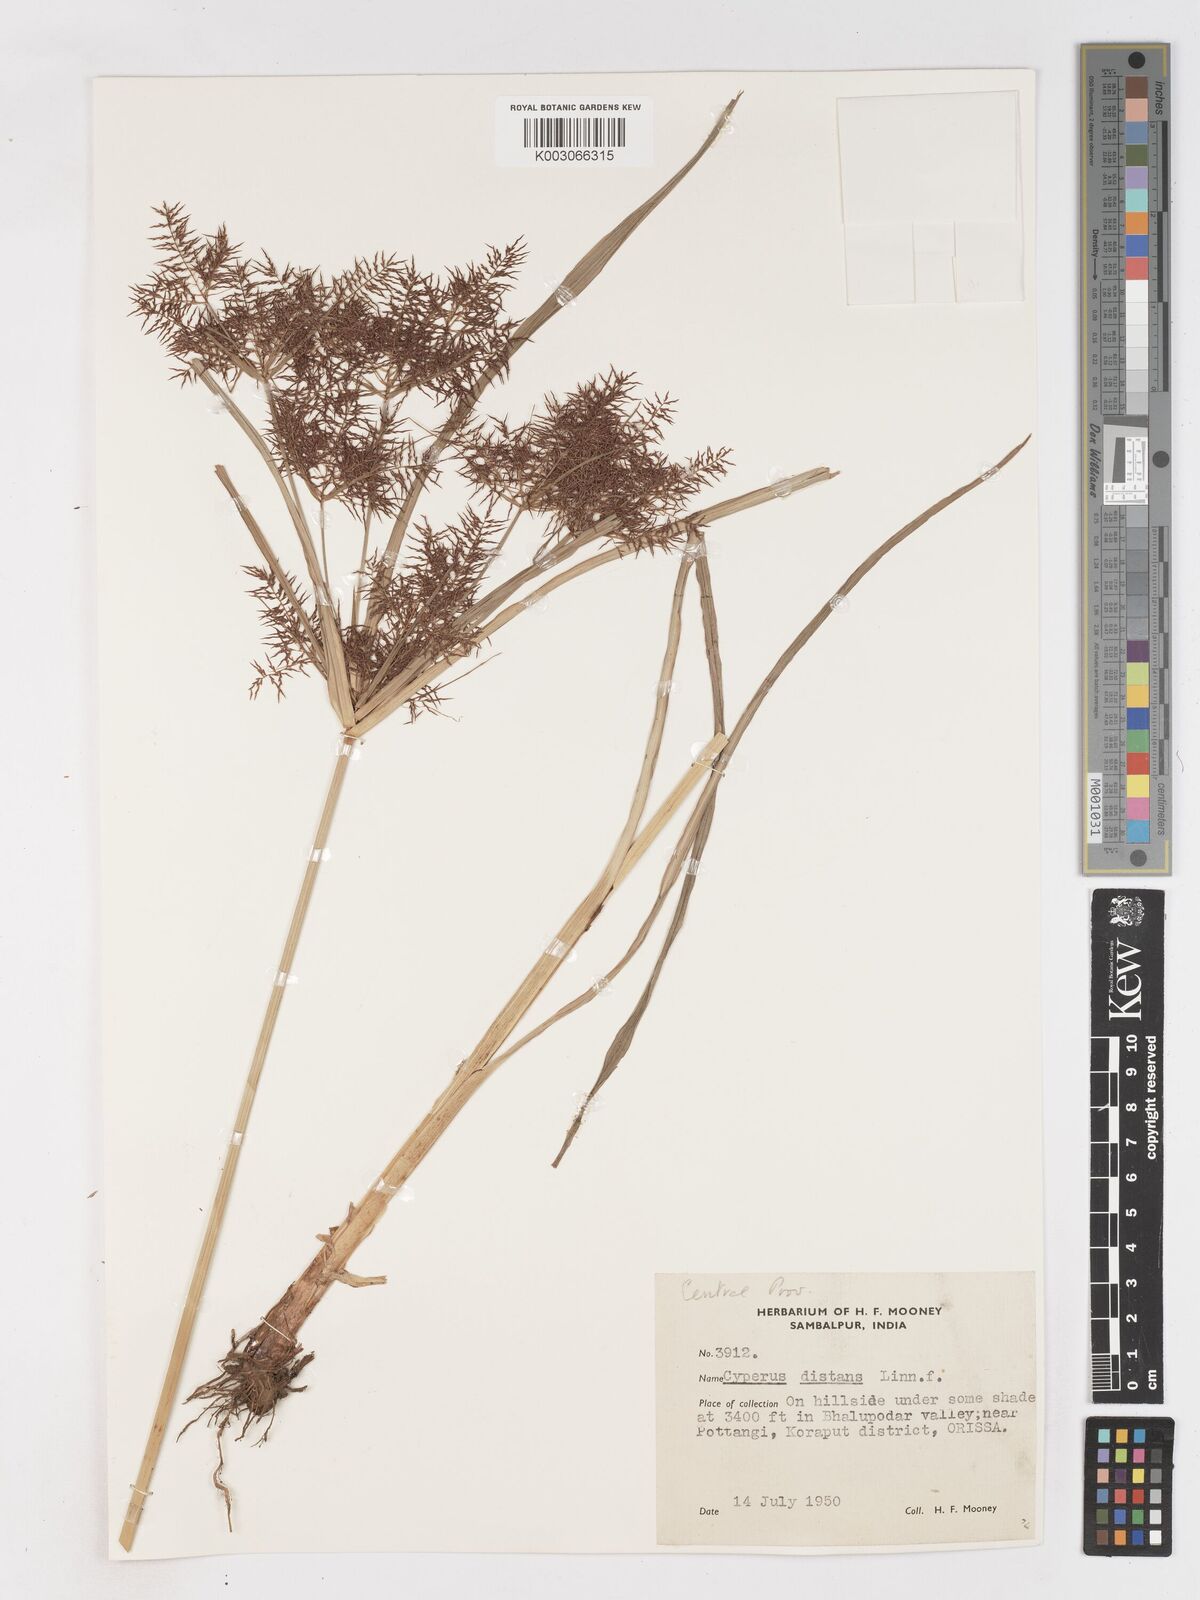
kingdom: Plantae
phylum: Tracheophyta
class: Liliopsida
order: Poales
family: Cyperaceae
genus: Cyperus
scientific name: Cyperus distans
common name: Slender cyperus
